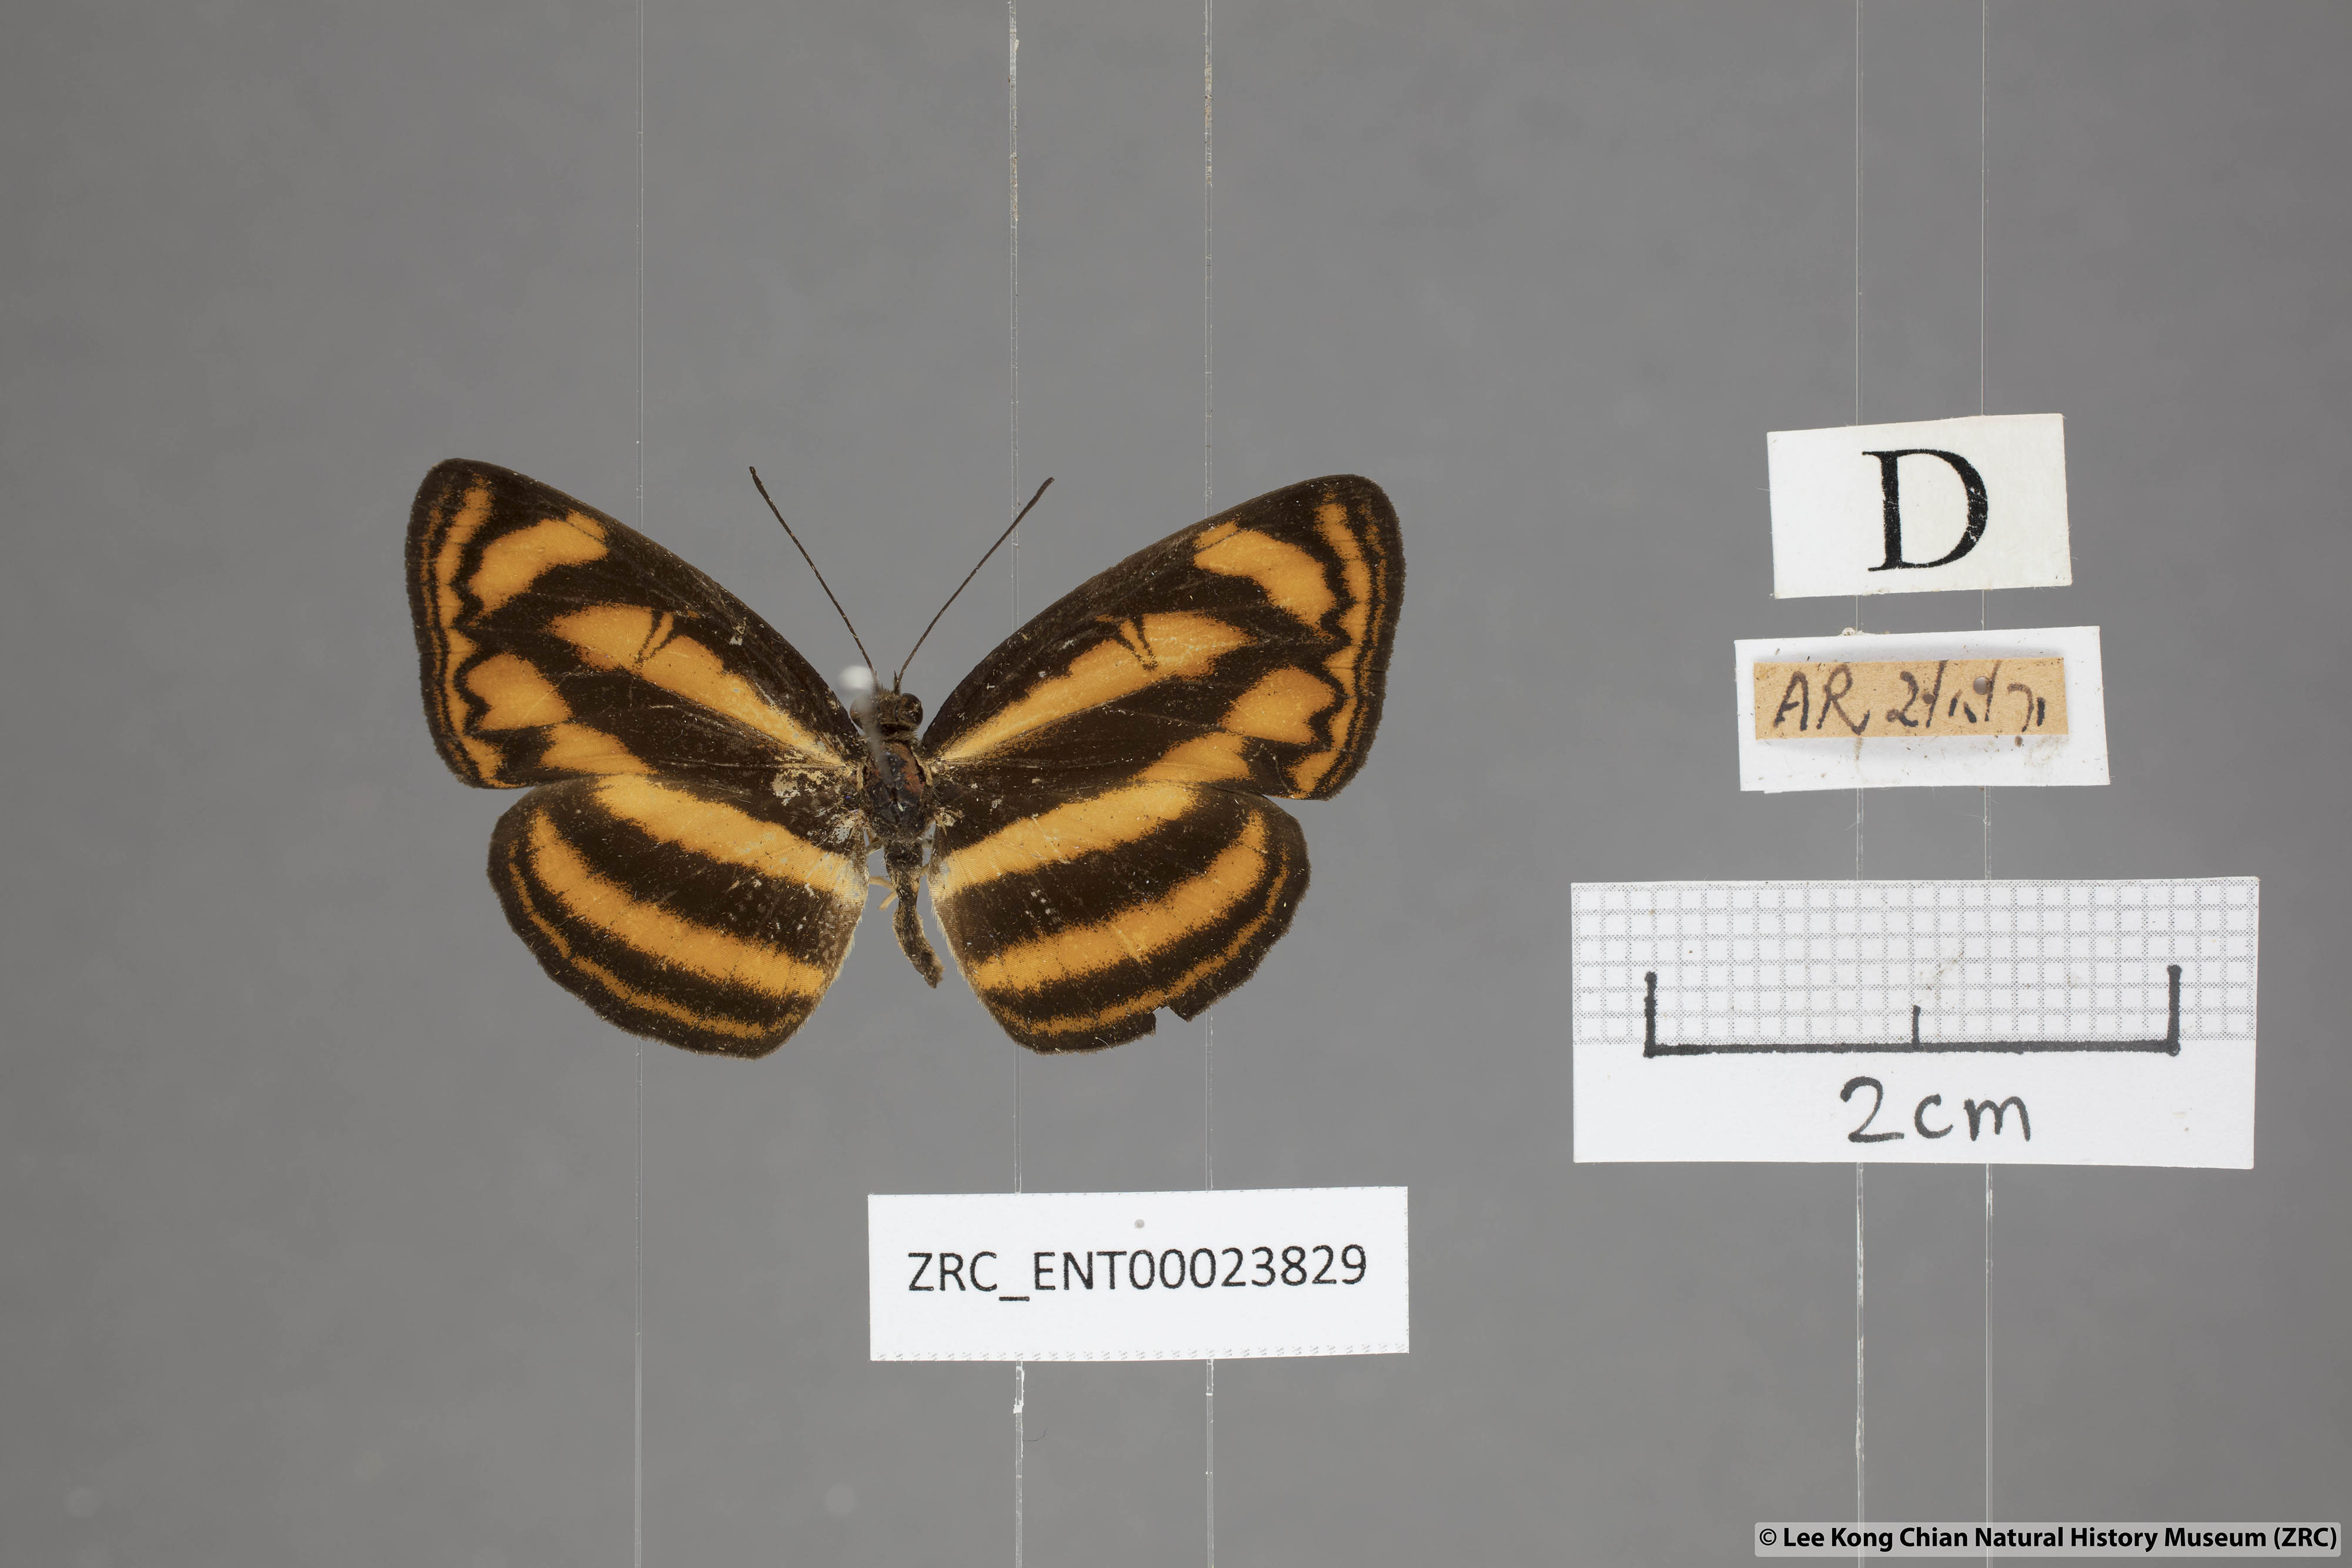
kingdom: Animalia
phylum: Arthropoda
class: Insecta
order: Lepidoptera
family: Nymphalidae
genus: Lasippa
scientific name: Lasippa heliodore
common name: Burmese lascar
